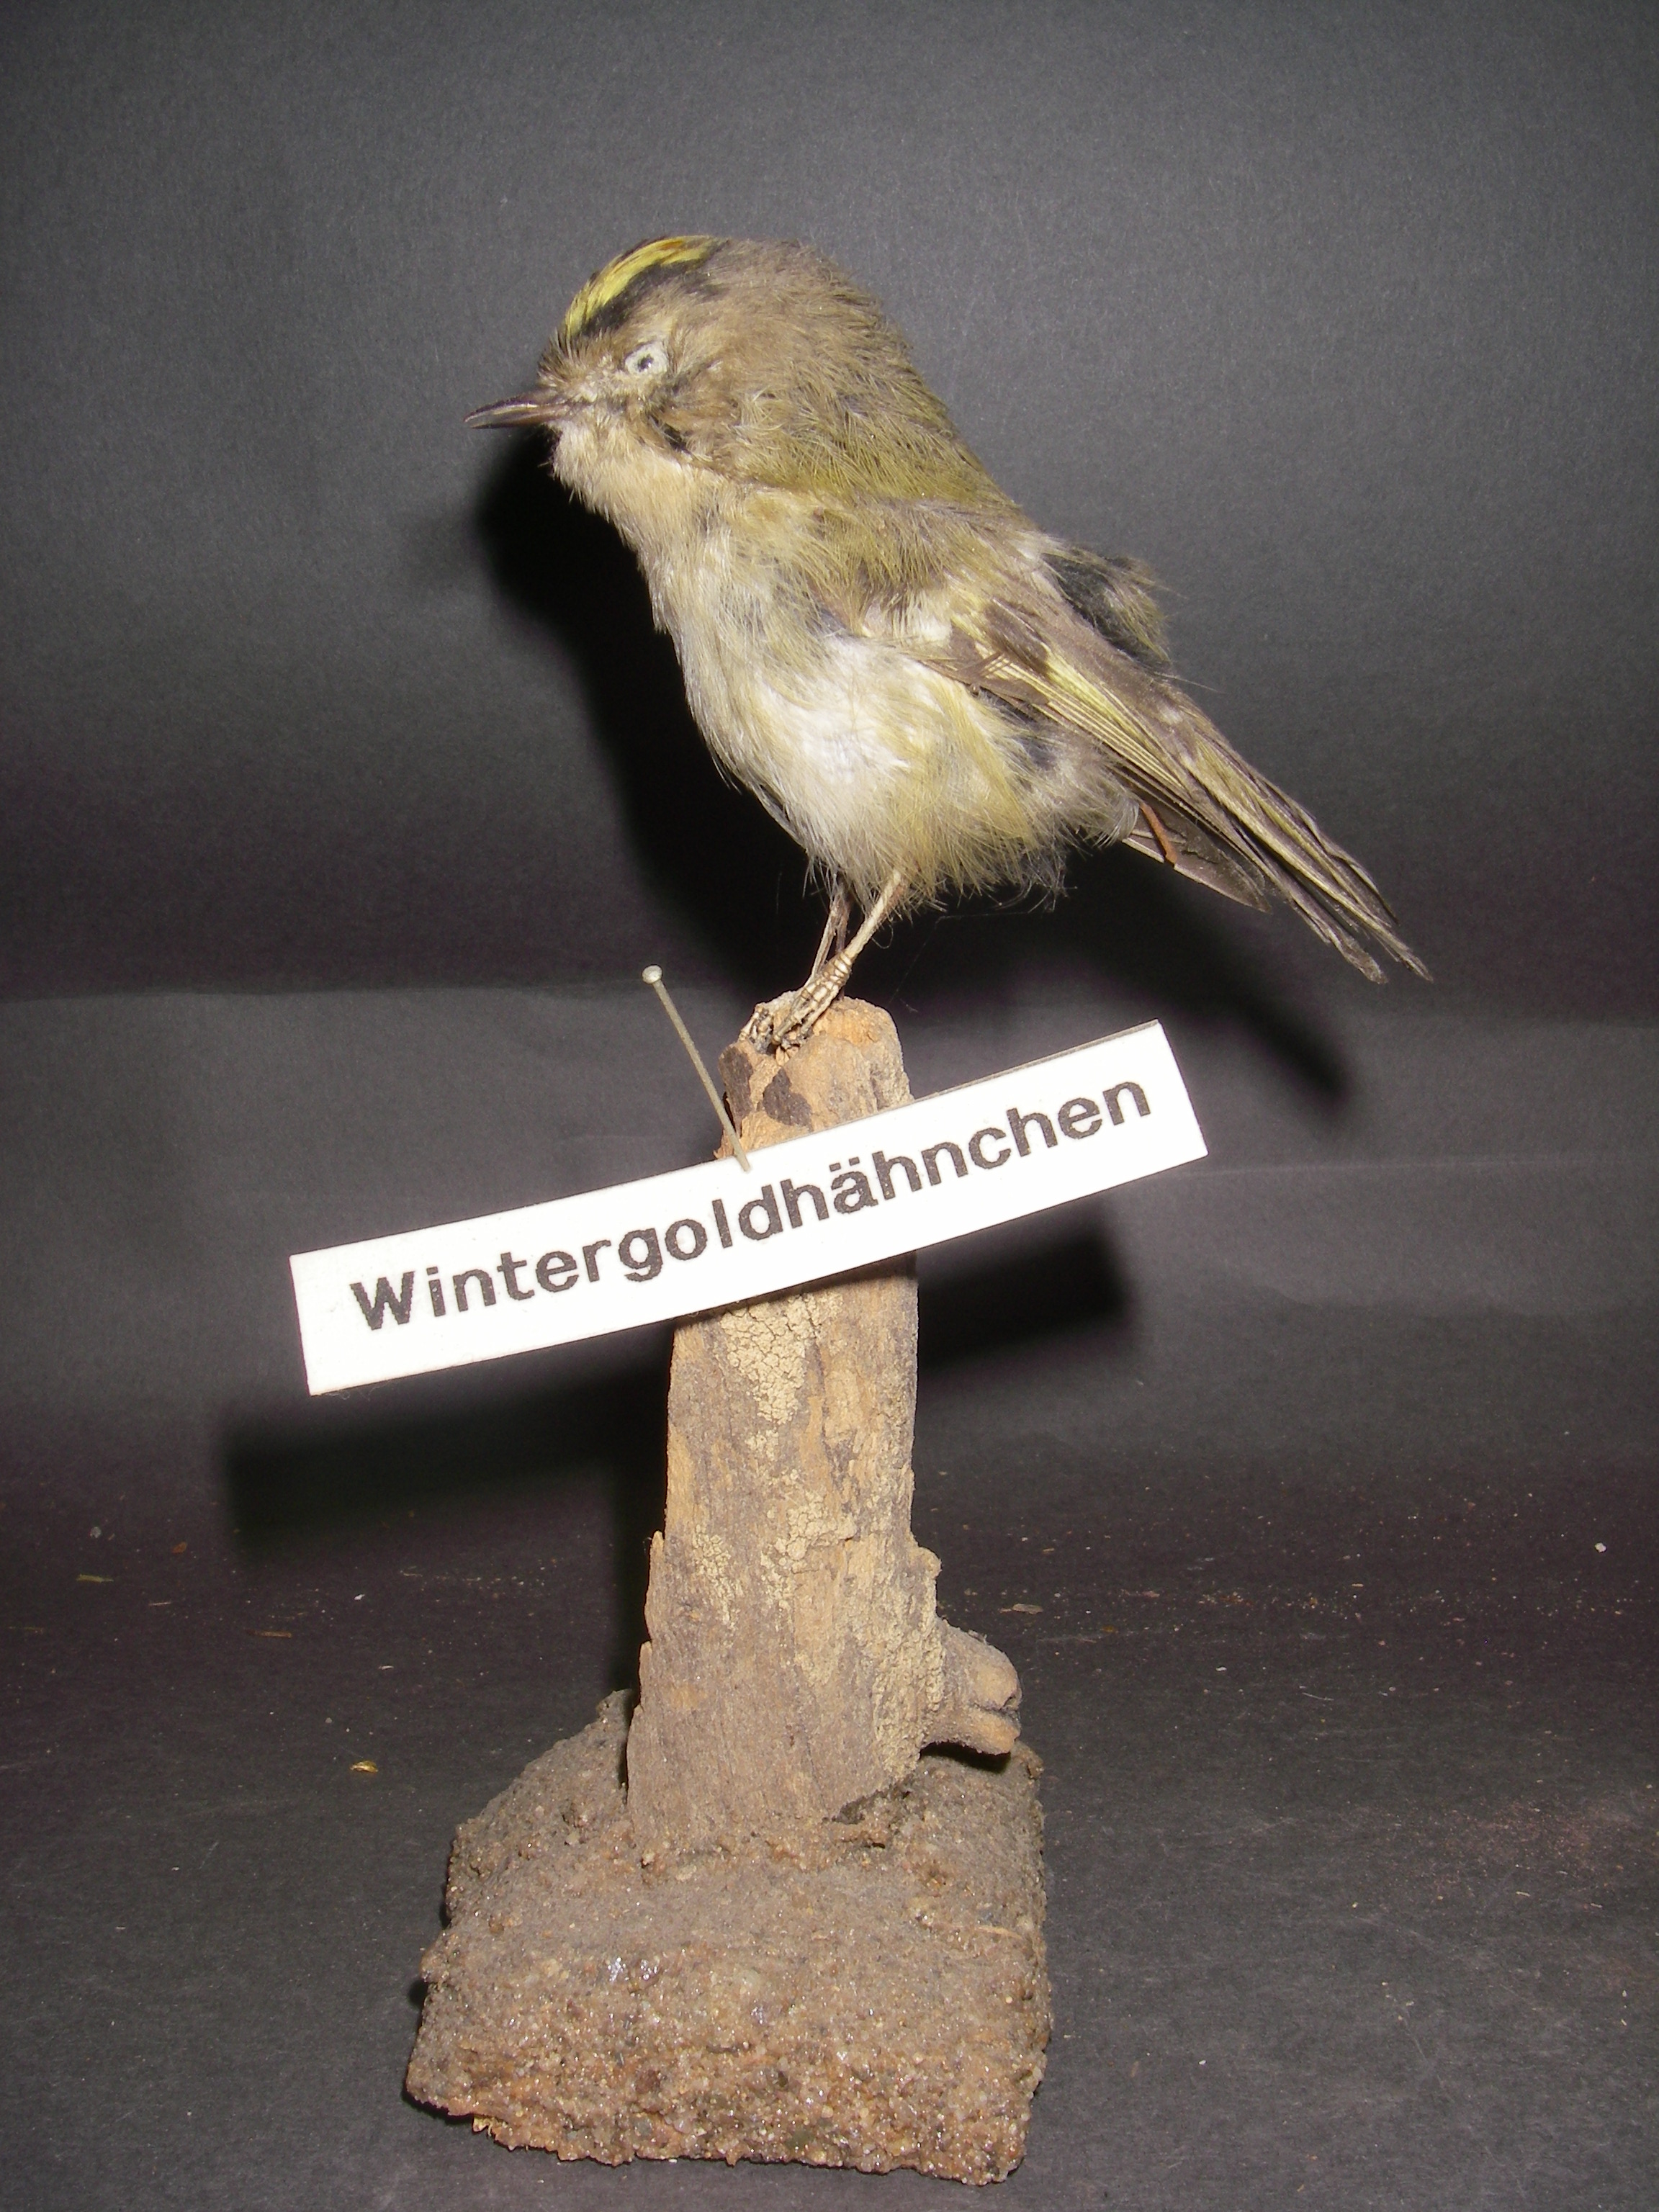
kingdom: Animalia
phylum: Chordata
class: Aves
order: Passeriformes
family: Regulidae
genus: Regulus
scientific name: Regulus regulus
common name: Goldcrest
